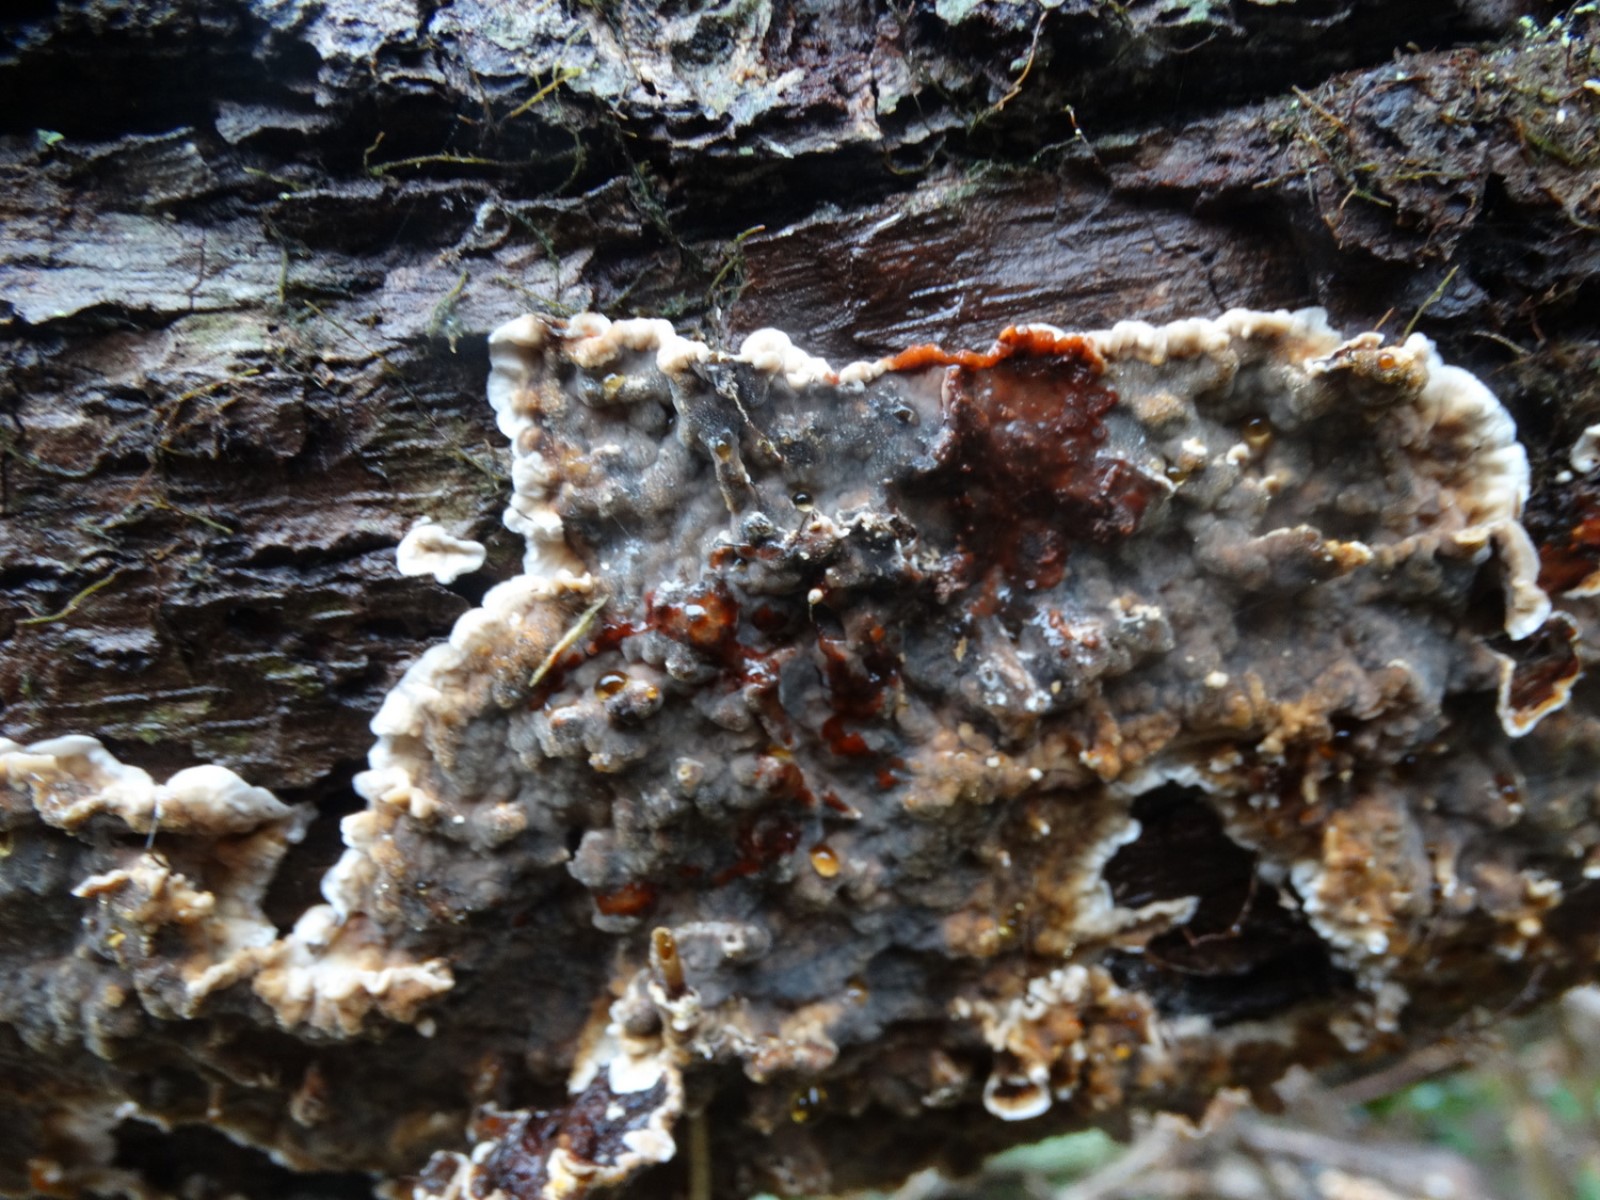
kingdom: Fungi
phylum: Basidiomycota
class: Agaricomycetes
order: Russulales
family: Stereaceae
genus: Stereum
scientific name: Stereum gausapatum
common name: tynd lædersvamp
